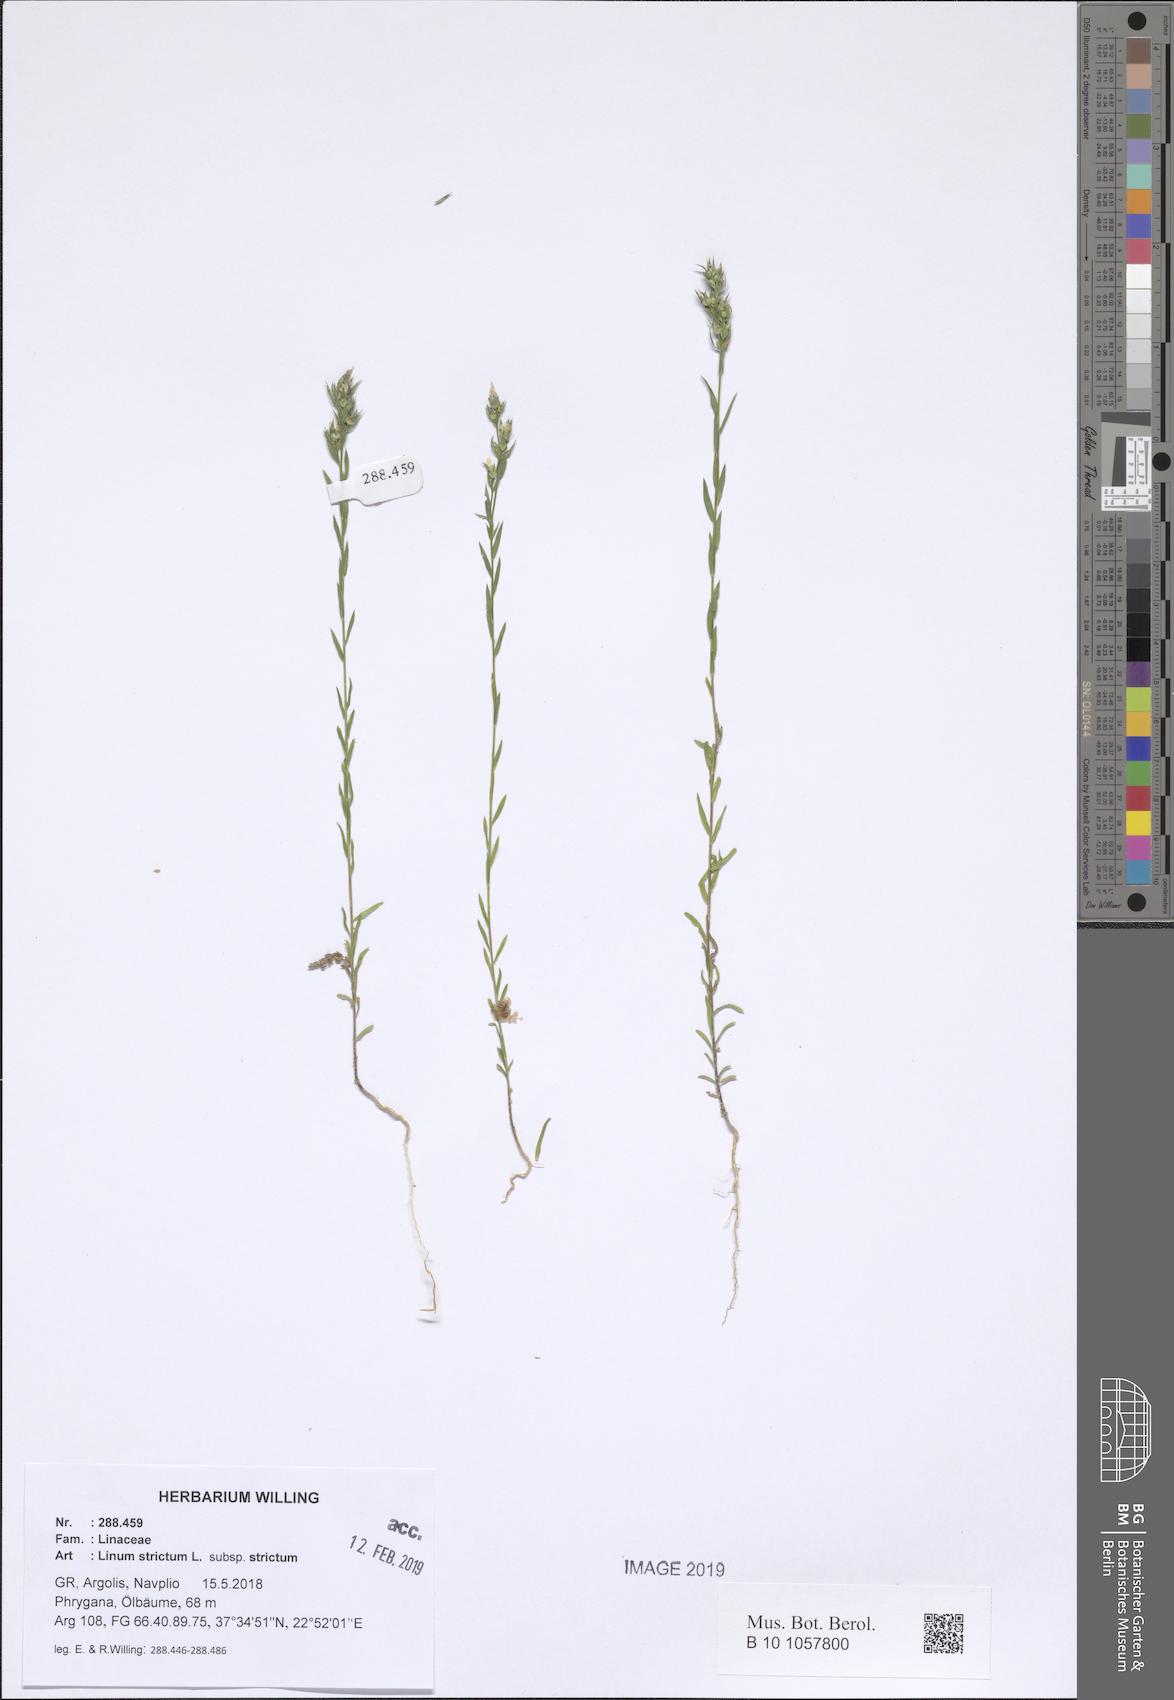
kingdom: Plantae
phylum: Tracheophyta
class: Magnoliopsida
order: Malpighiales
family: Linaceae
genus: Linum
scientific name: Linum strictum
